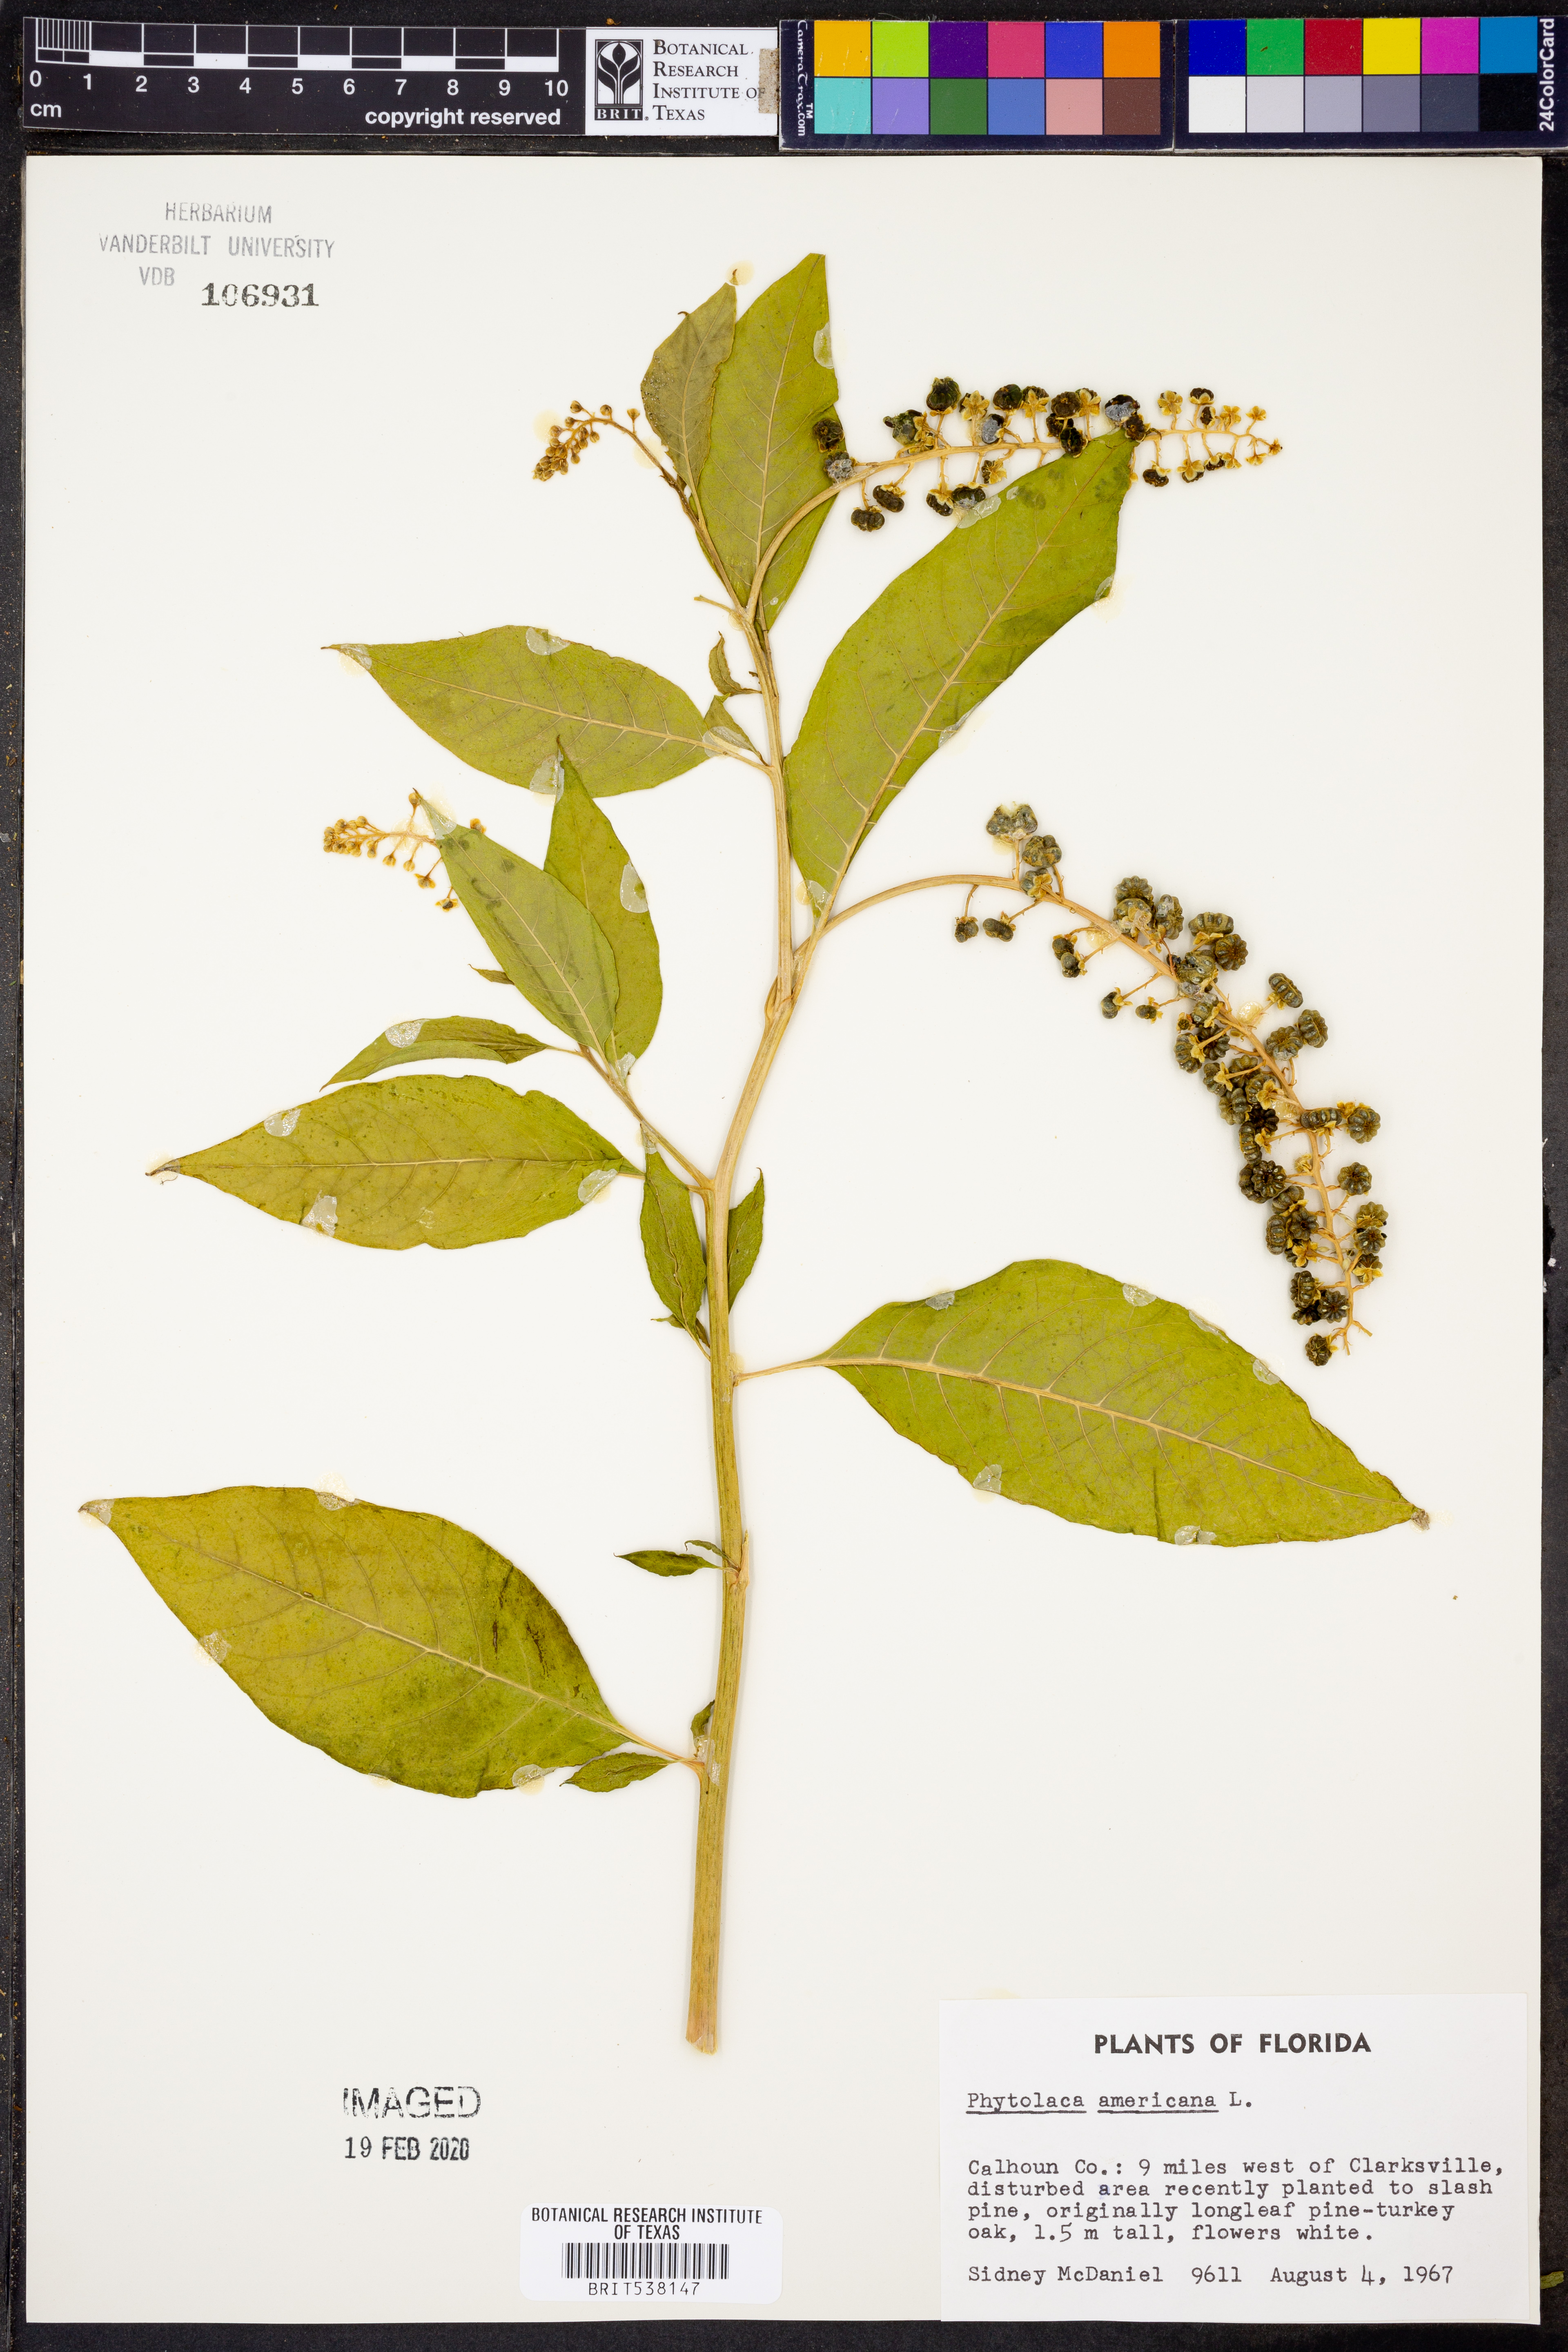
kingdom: Plantae
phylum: Tracheophyta
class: Magnoliopsida
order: Caryophyllales
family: Phytolaccaceae
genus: Phytolacca
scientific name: Phytolacca americana
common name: American pokeweed
